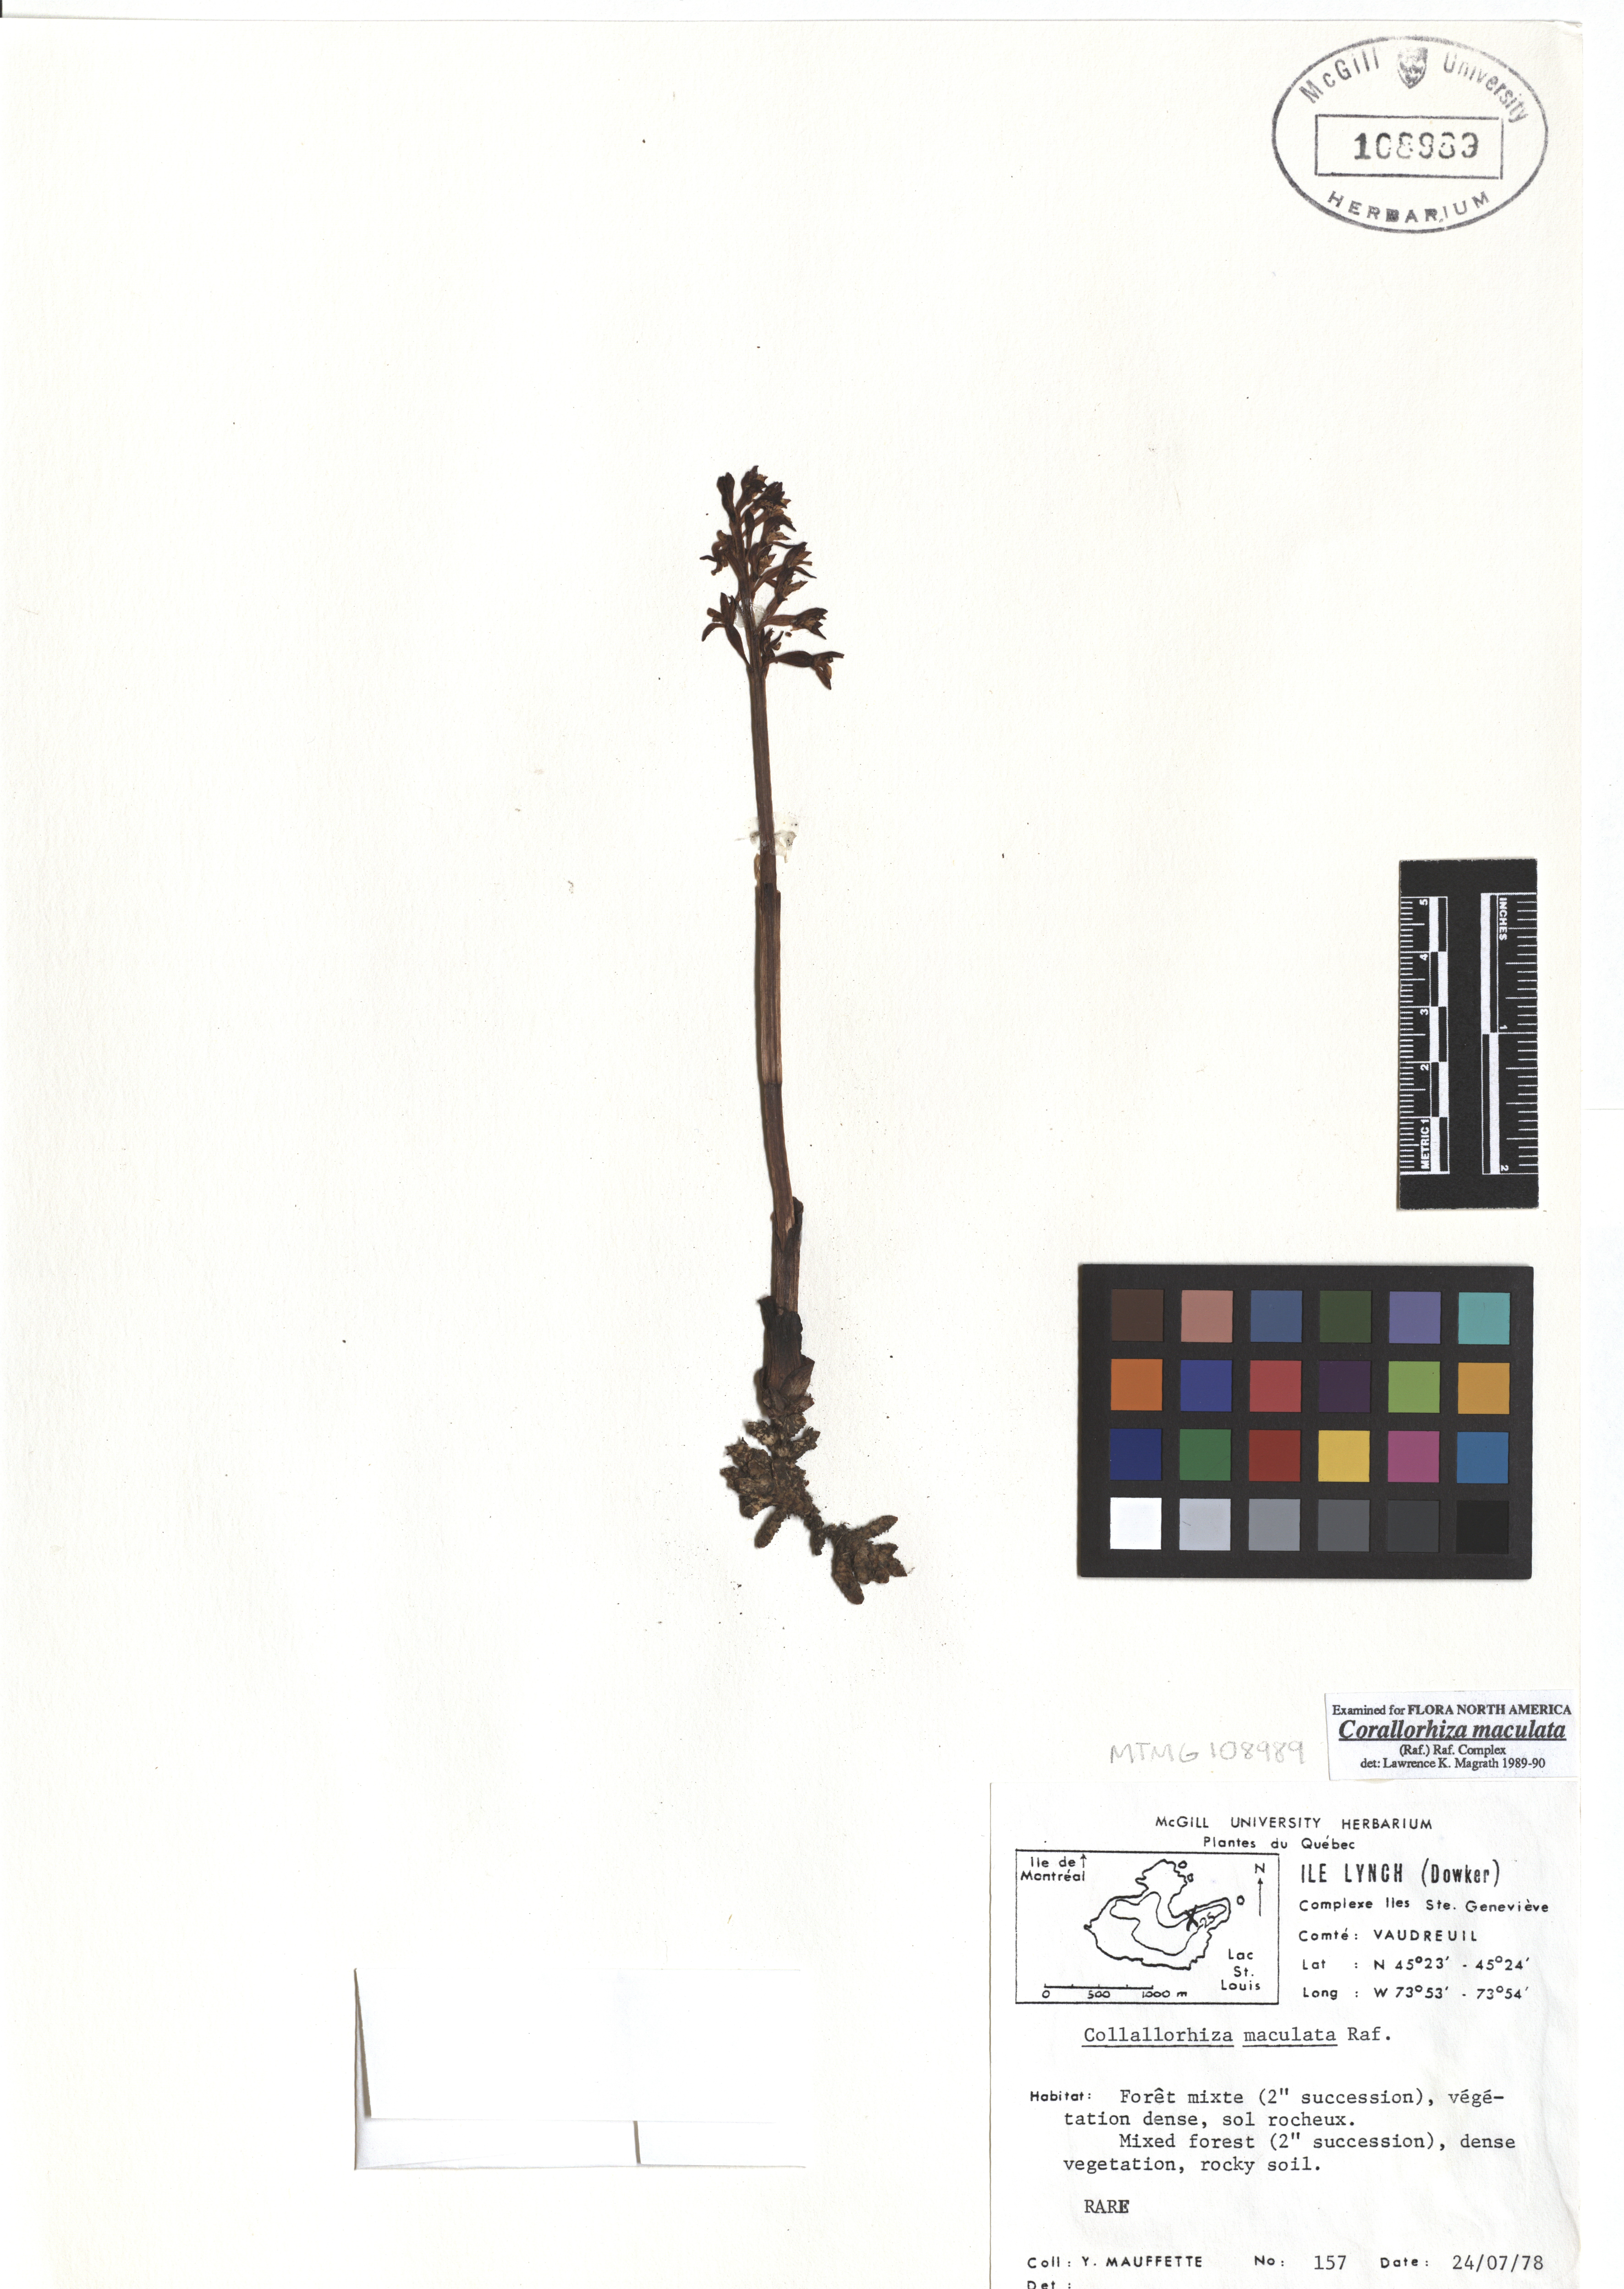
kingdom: Plantae
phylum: Tracheophyta
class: Liliopsida
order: Asparagales
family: Orchidaceae
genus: Corallorhiza
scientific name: Corallorhiza maculata
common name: Spotted coralroot
